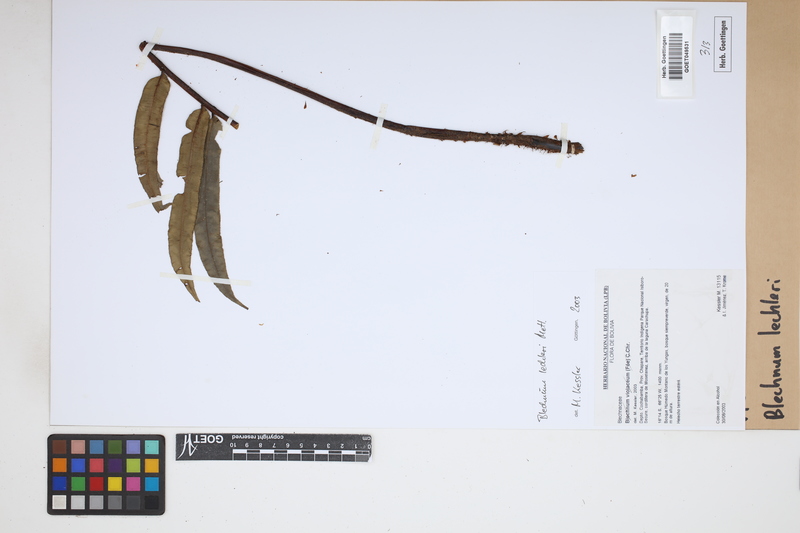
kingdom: Plantae
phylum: Tracheophyta
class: Polypodiopsida
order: Polypodiales
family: Blechnaceae
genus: Parablechnum
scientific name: Parablechnum lechleri
